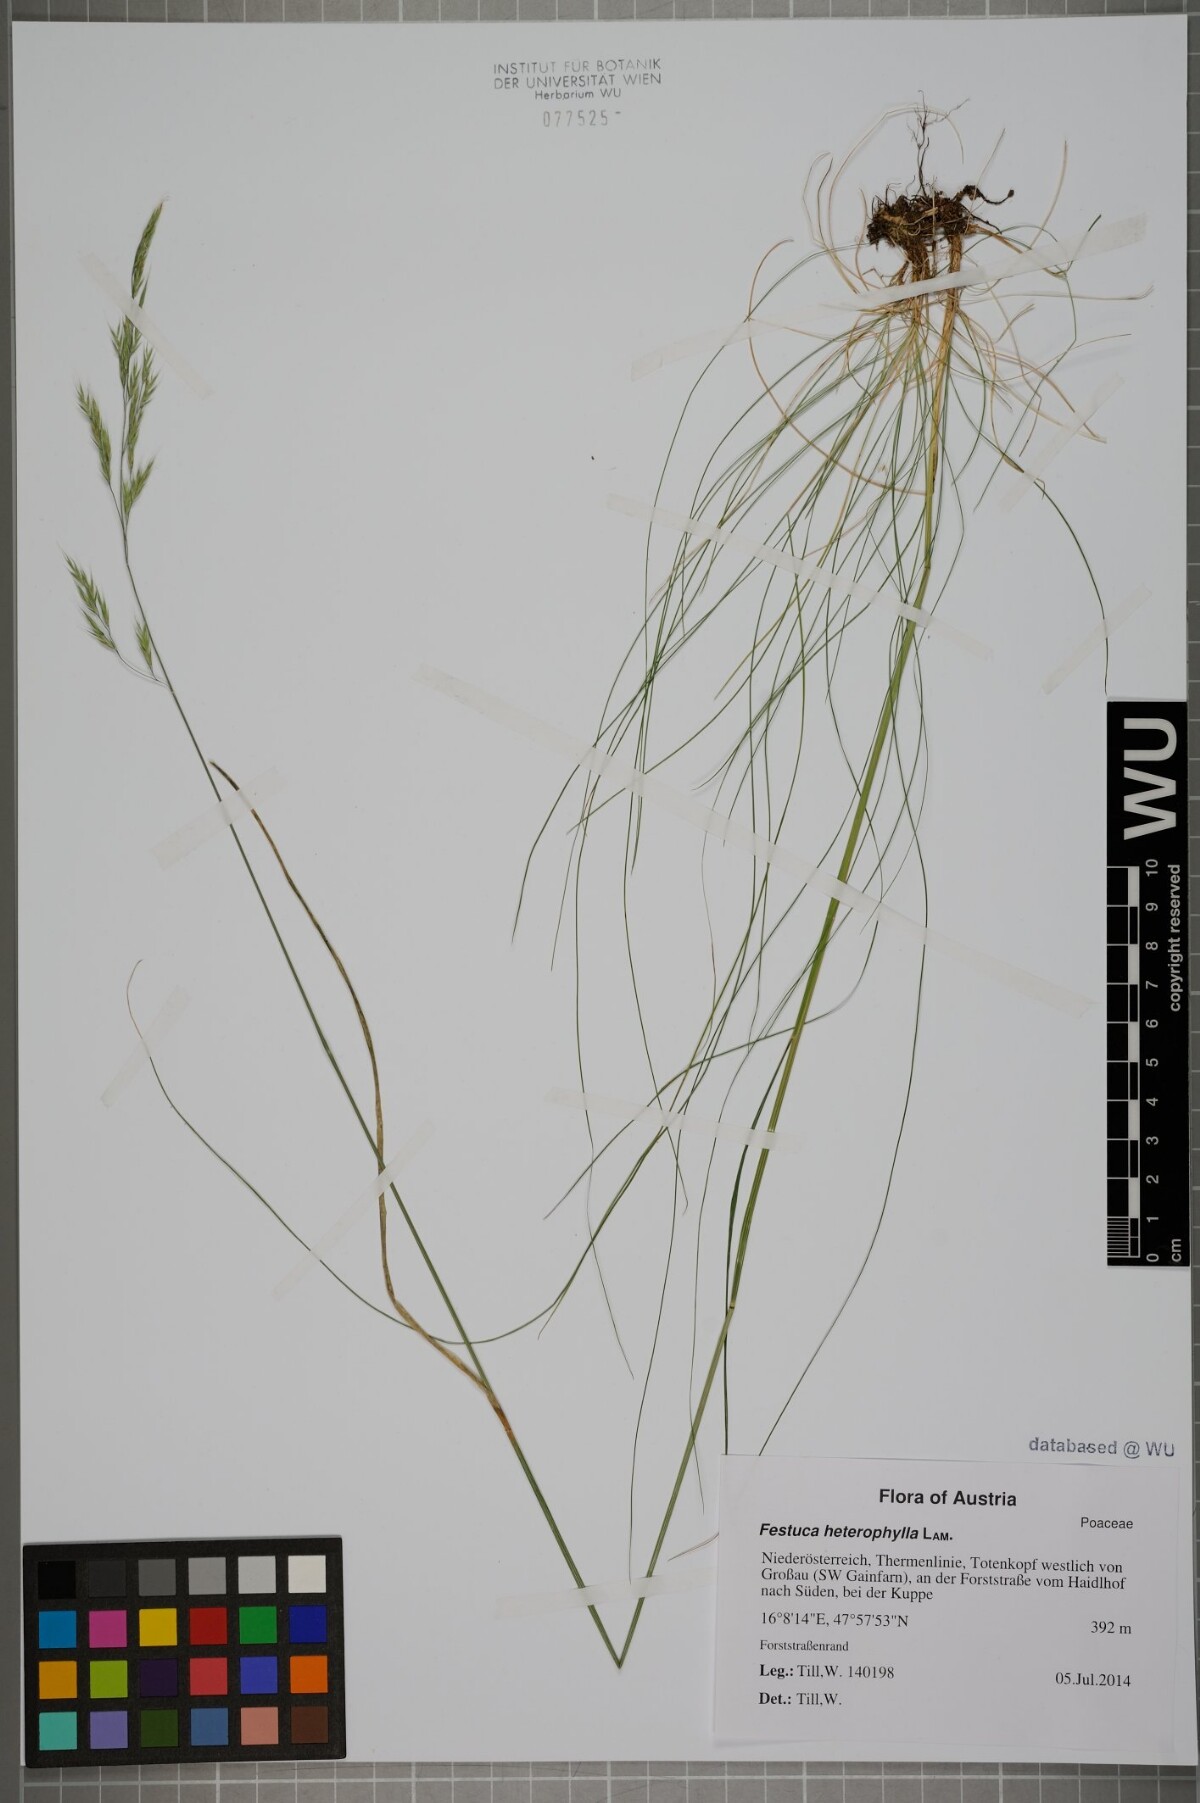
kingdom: Plantae
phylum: Tracheophyta
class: Liliopsida
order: Poales
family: Poaceae
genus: Festuca
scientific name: Festuca heterophylla
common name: Various-leaved fescue
